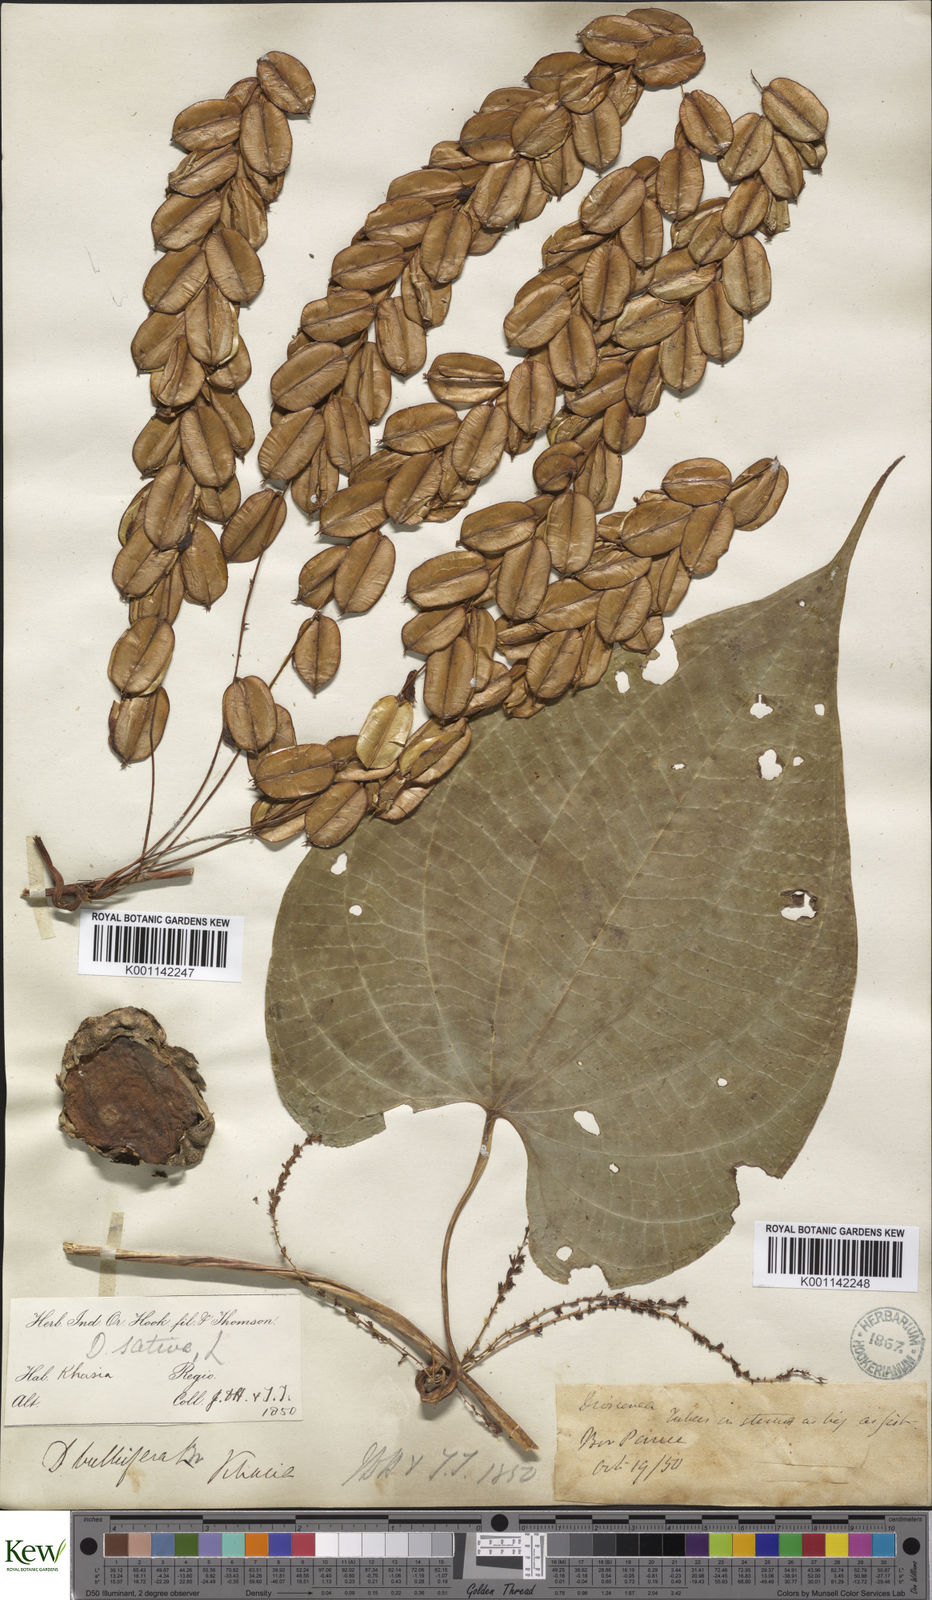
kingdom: Plantae
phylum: Tracheophyta
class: Liliopsida
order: Dioscoreales
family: Dioscoreaceae
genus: Dioscorea
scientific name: Dioscorea bulbifera
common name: Air yam
